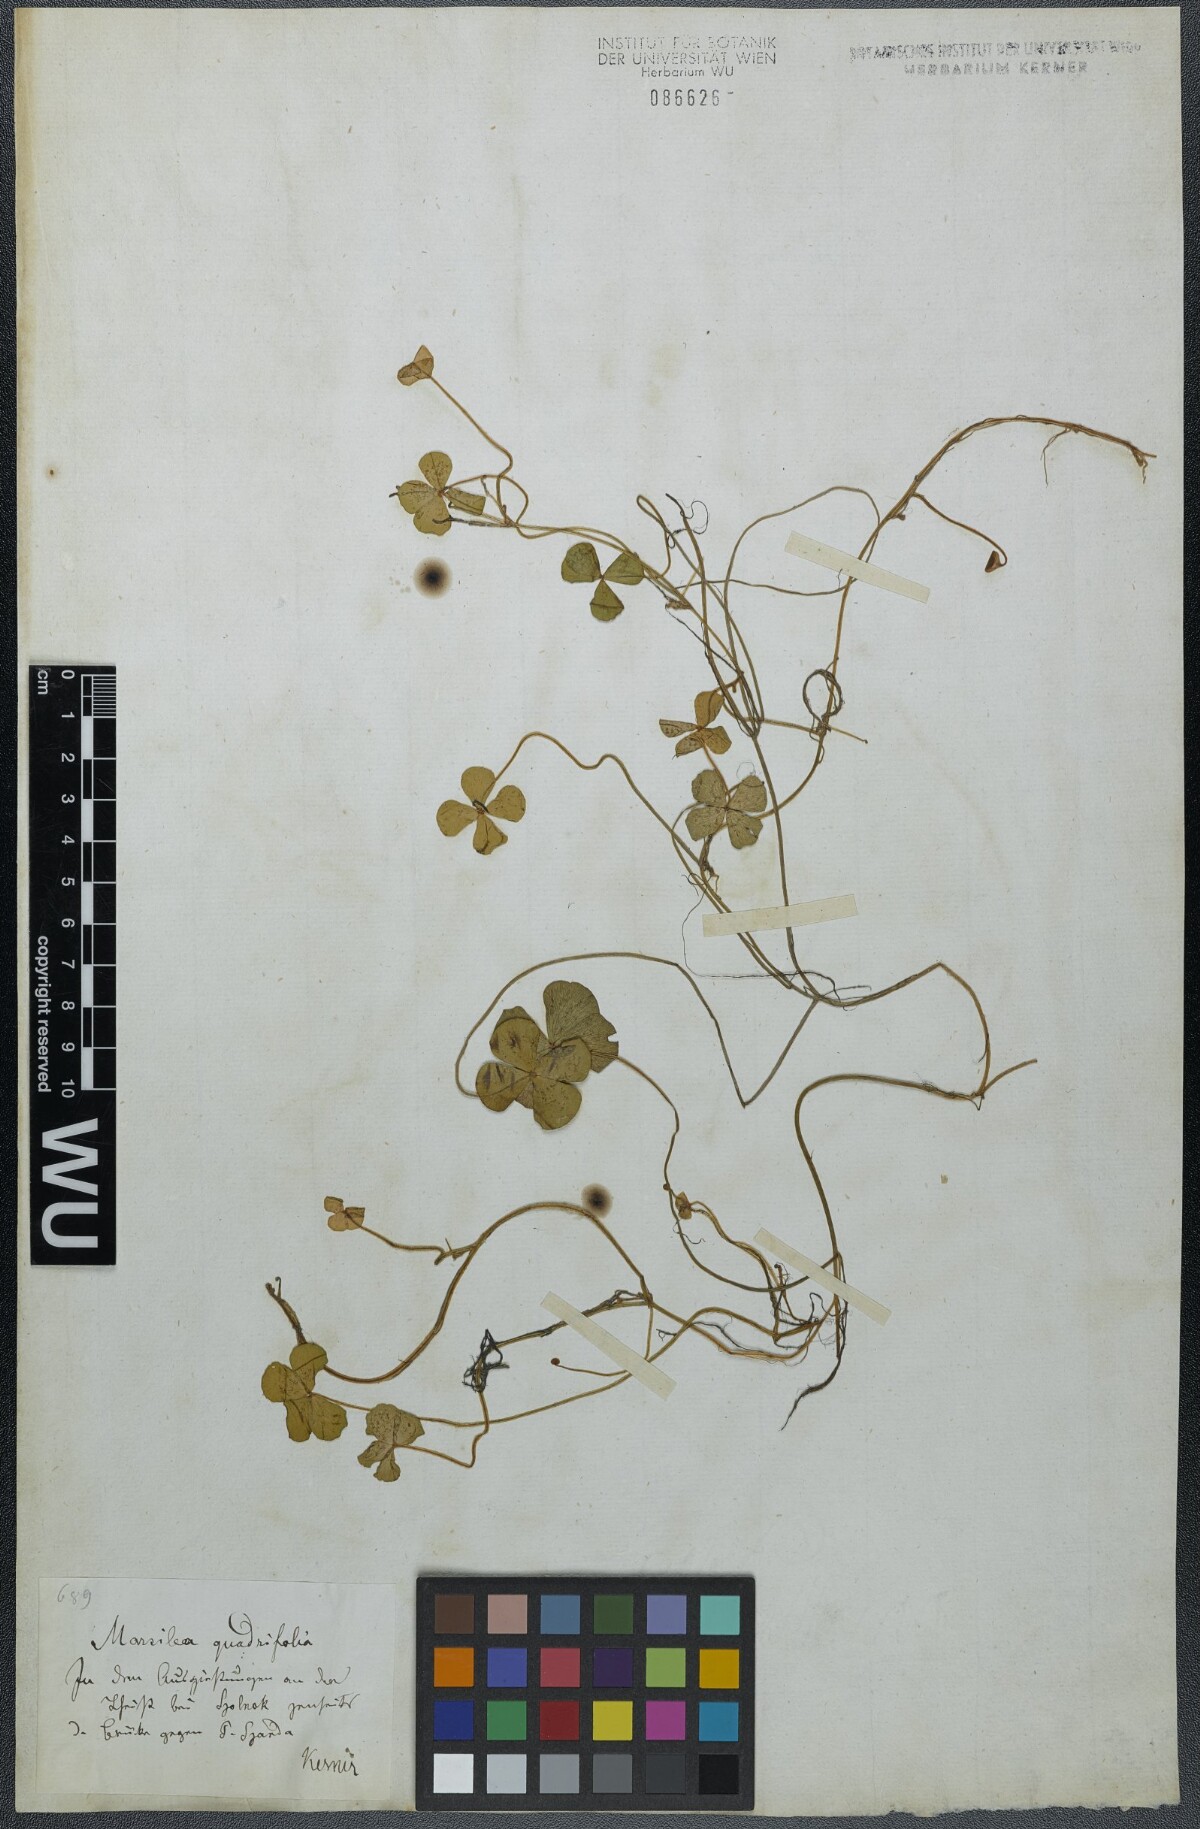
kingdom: Plantae
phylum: Tracheophyta
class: Polypodiopsida
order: Salviniales
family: Marsileaceae
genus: Marsilea
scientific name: Marsilea quadrifolia
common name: Water shamrock
